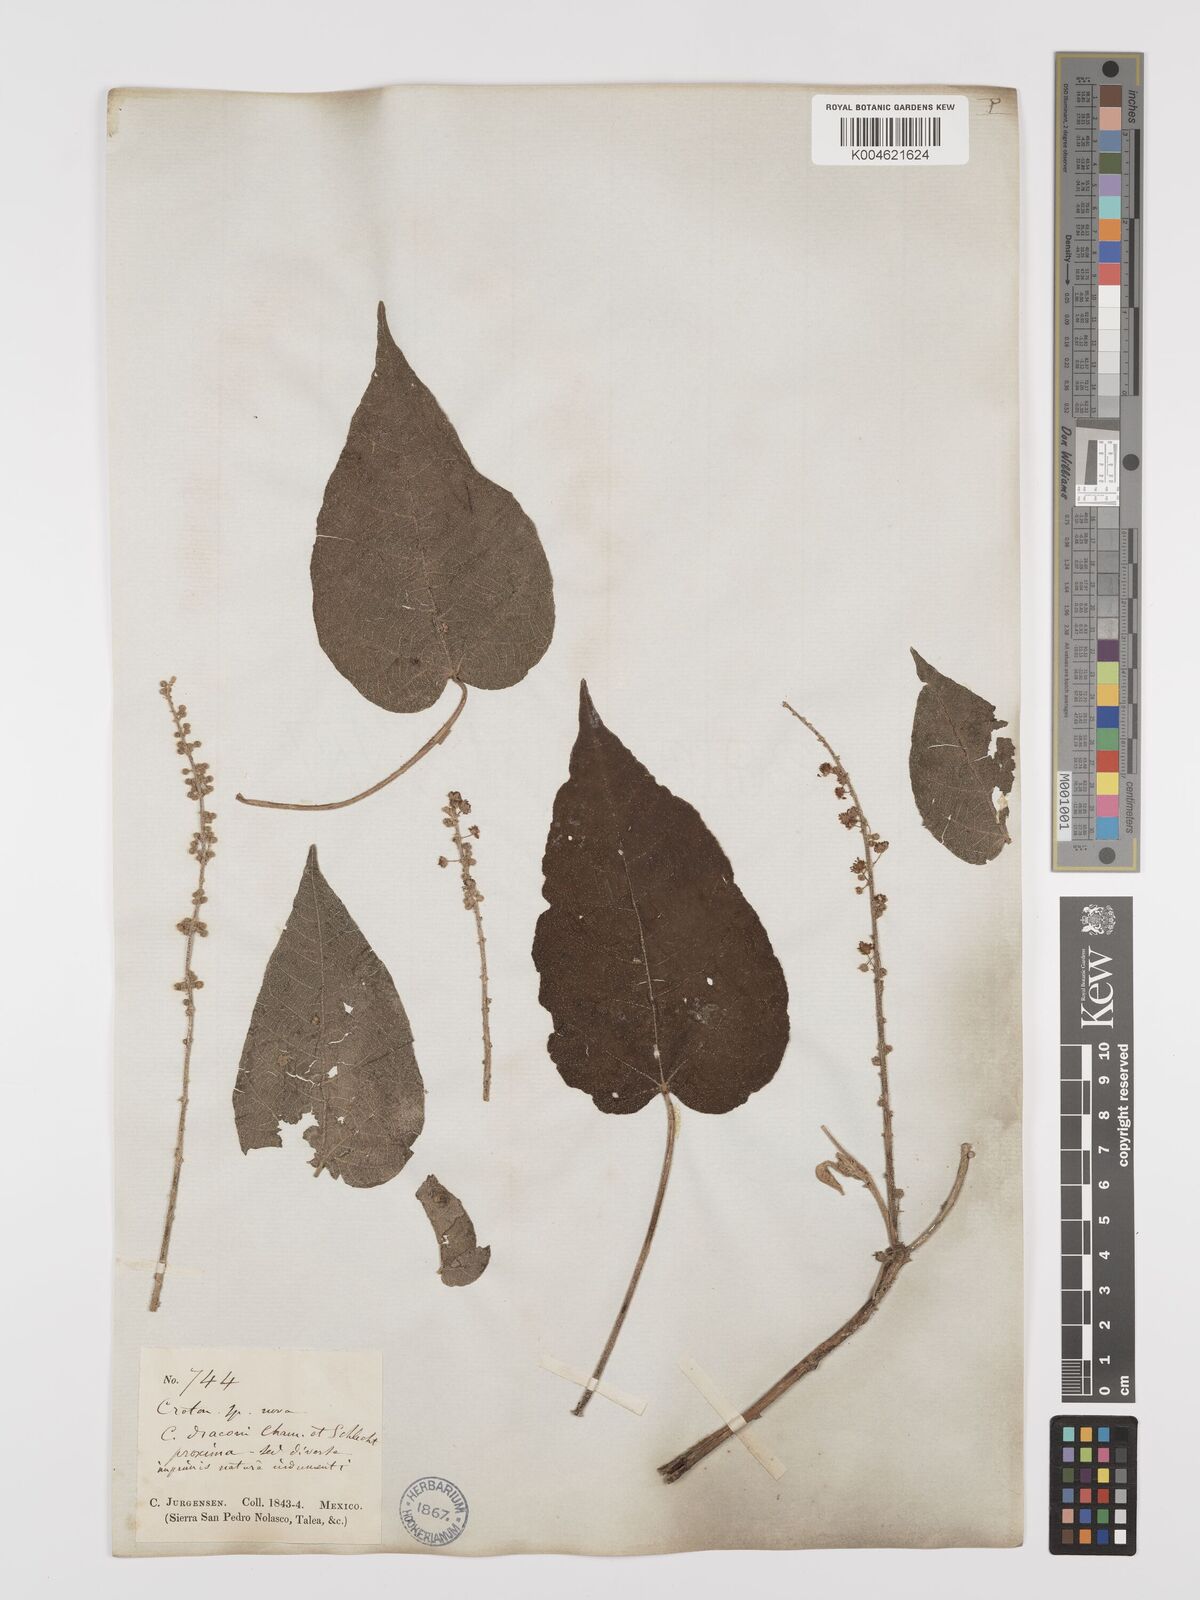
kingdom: Plantae
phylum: Tracheophyta
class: Magnoliopsida
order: Malpighiales
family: Euphorbiaceae
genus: Croton
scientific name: Croton draco
